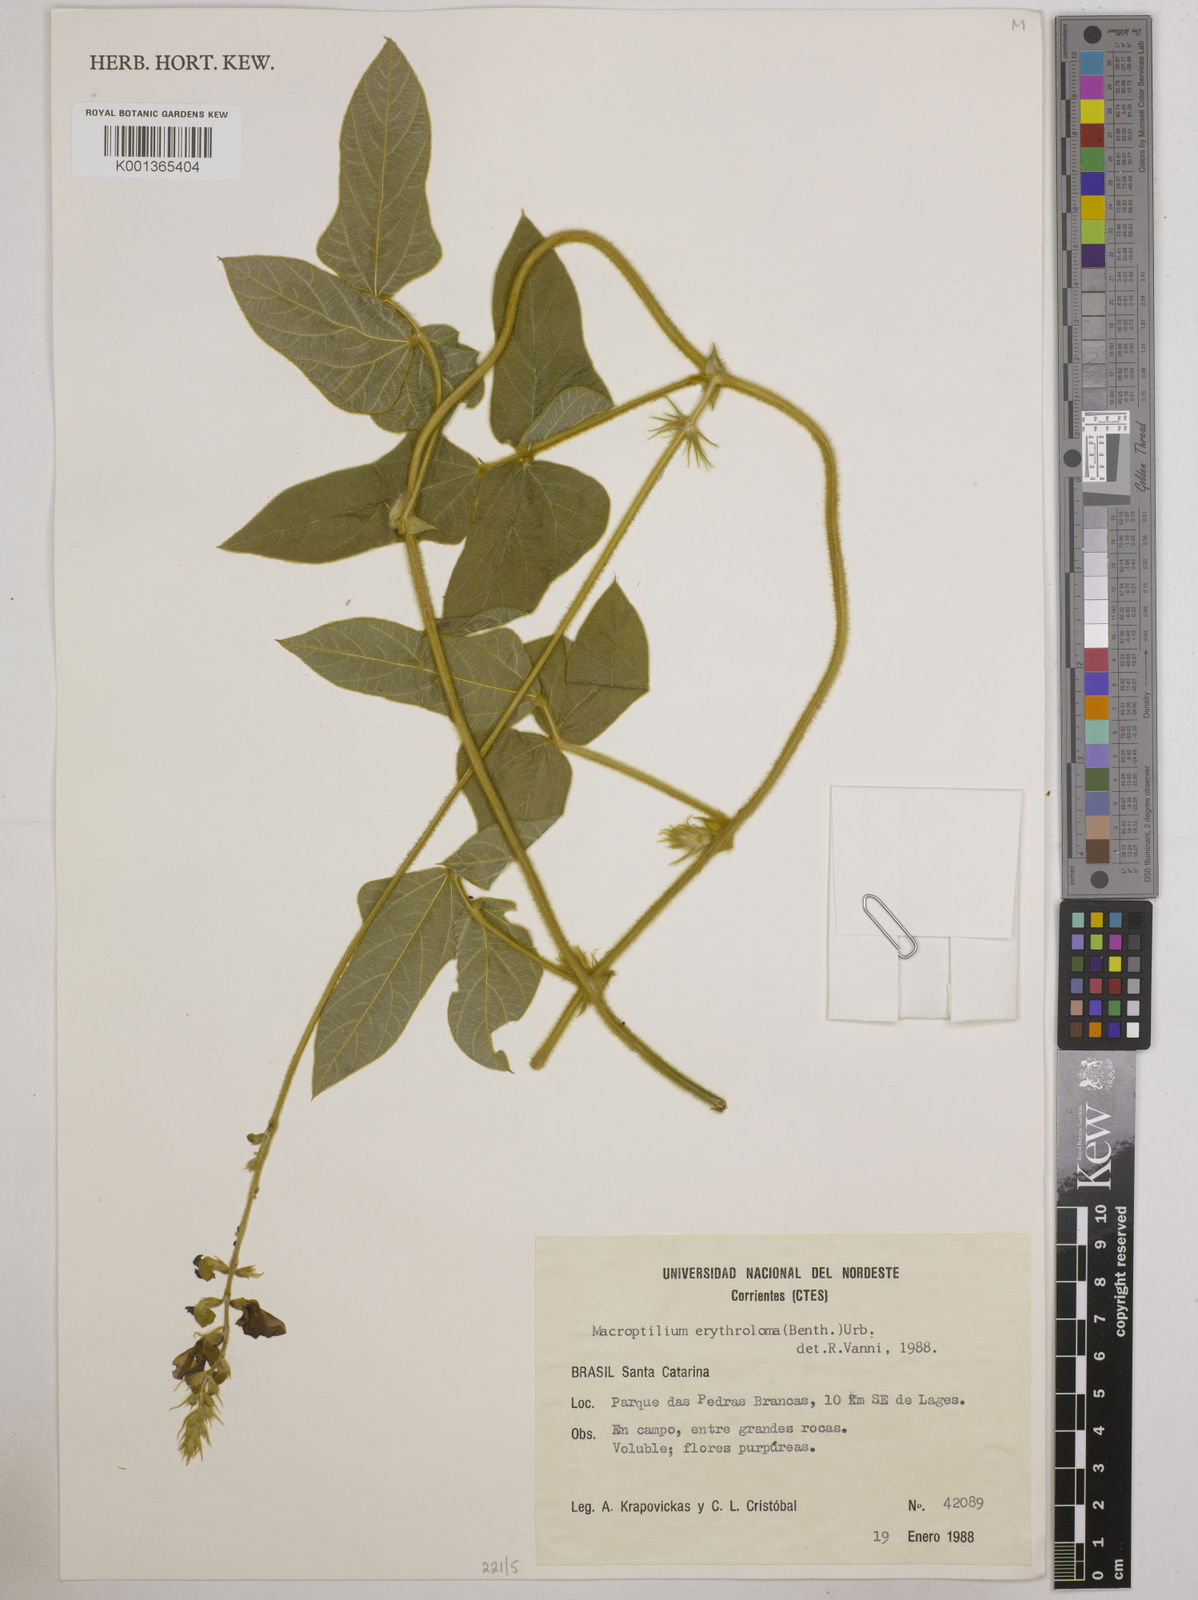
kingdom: Plantae
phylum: Tracheophyta
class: Magnoliopsida
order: Fabales
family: Fabaceae
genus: Macroptilium
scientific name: Macroptilium erythroloma
